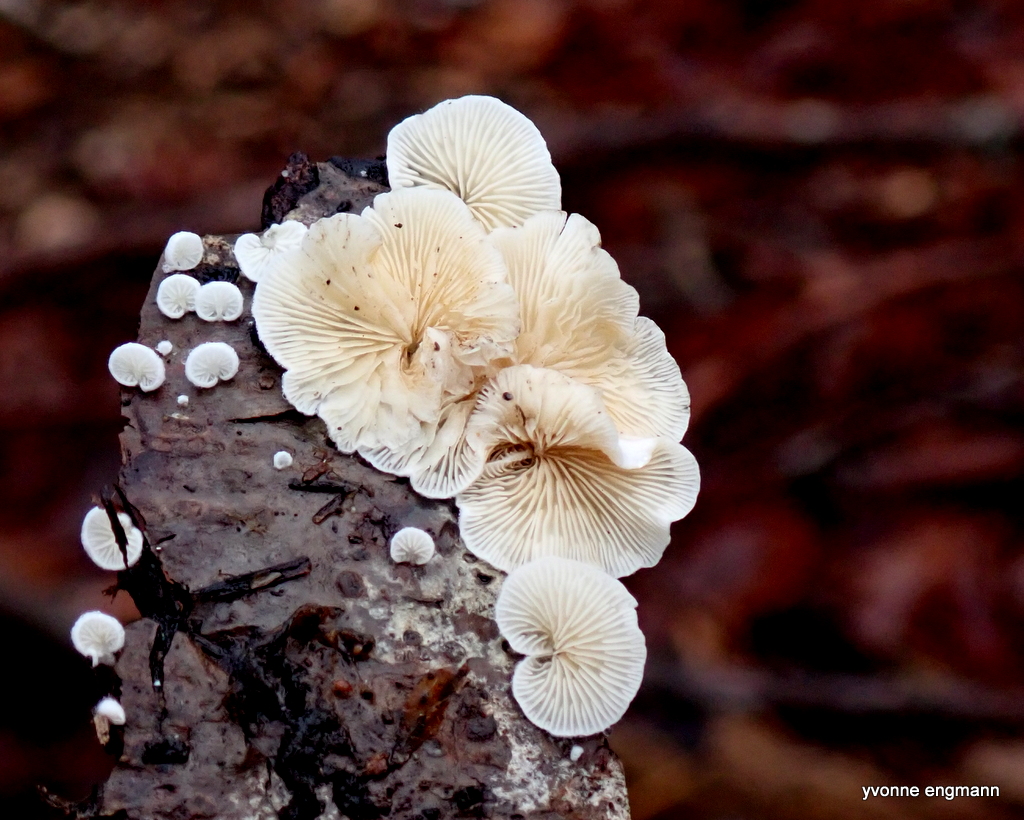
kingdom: Fungi
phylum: Basidiomycota
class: Agaricomycetes
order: Agaricales
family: Crepidotaceae
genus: Crepidotus
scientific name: Crepidotus
